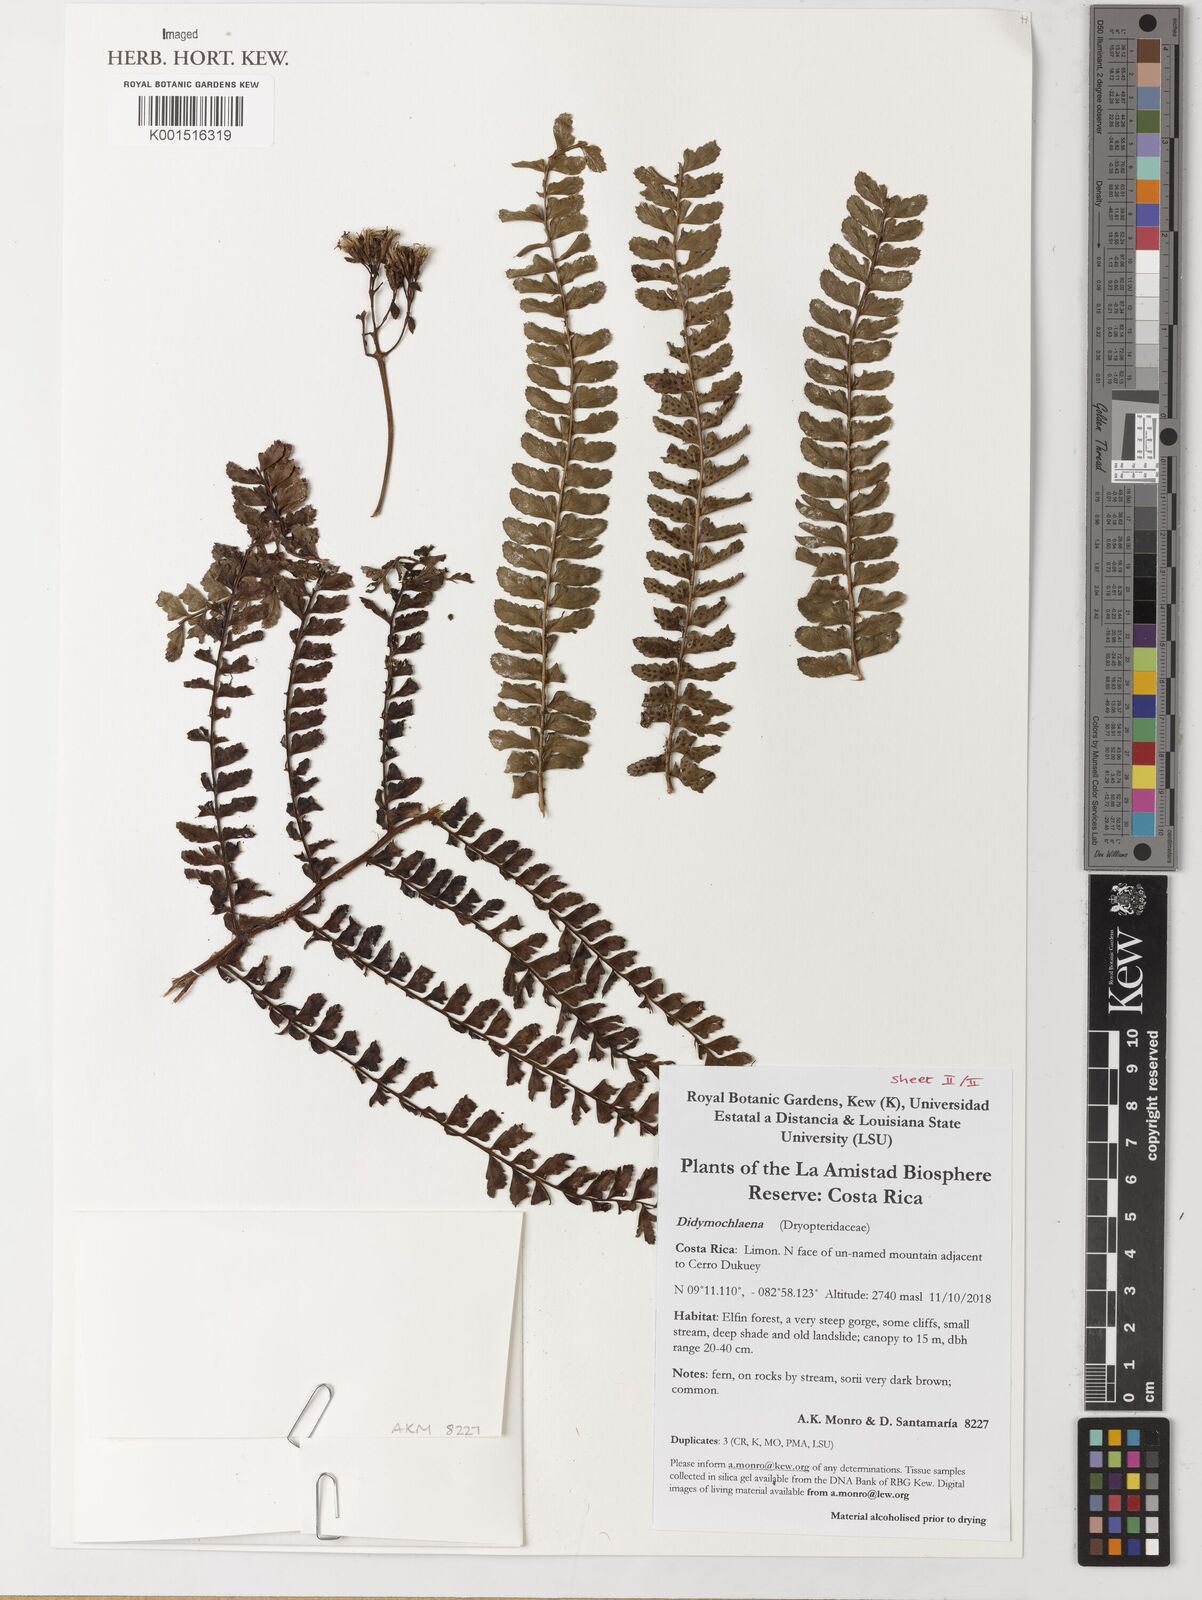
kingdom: Plantae
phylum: Tracheophyta
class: Polypodiopsida
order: Polypodiales
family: Didymochlaenaceae
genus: Didymochlaena
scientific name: Didymochlaena
